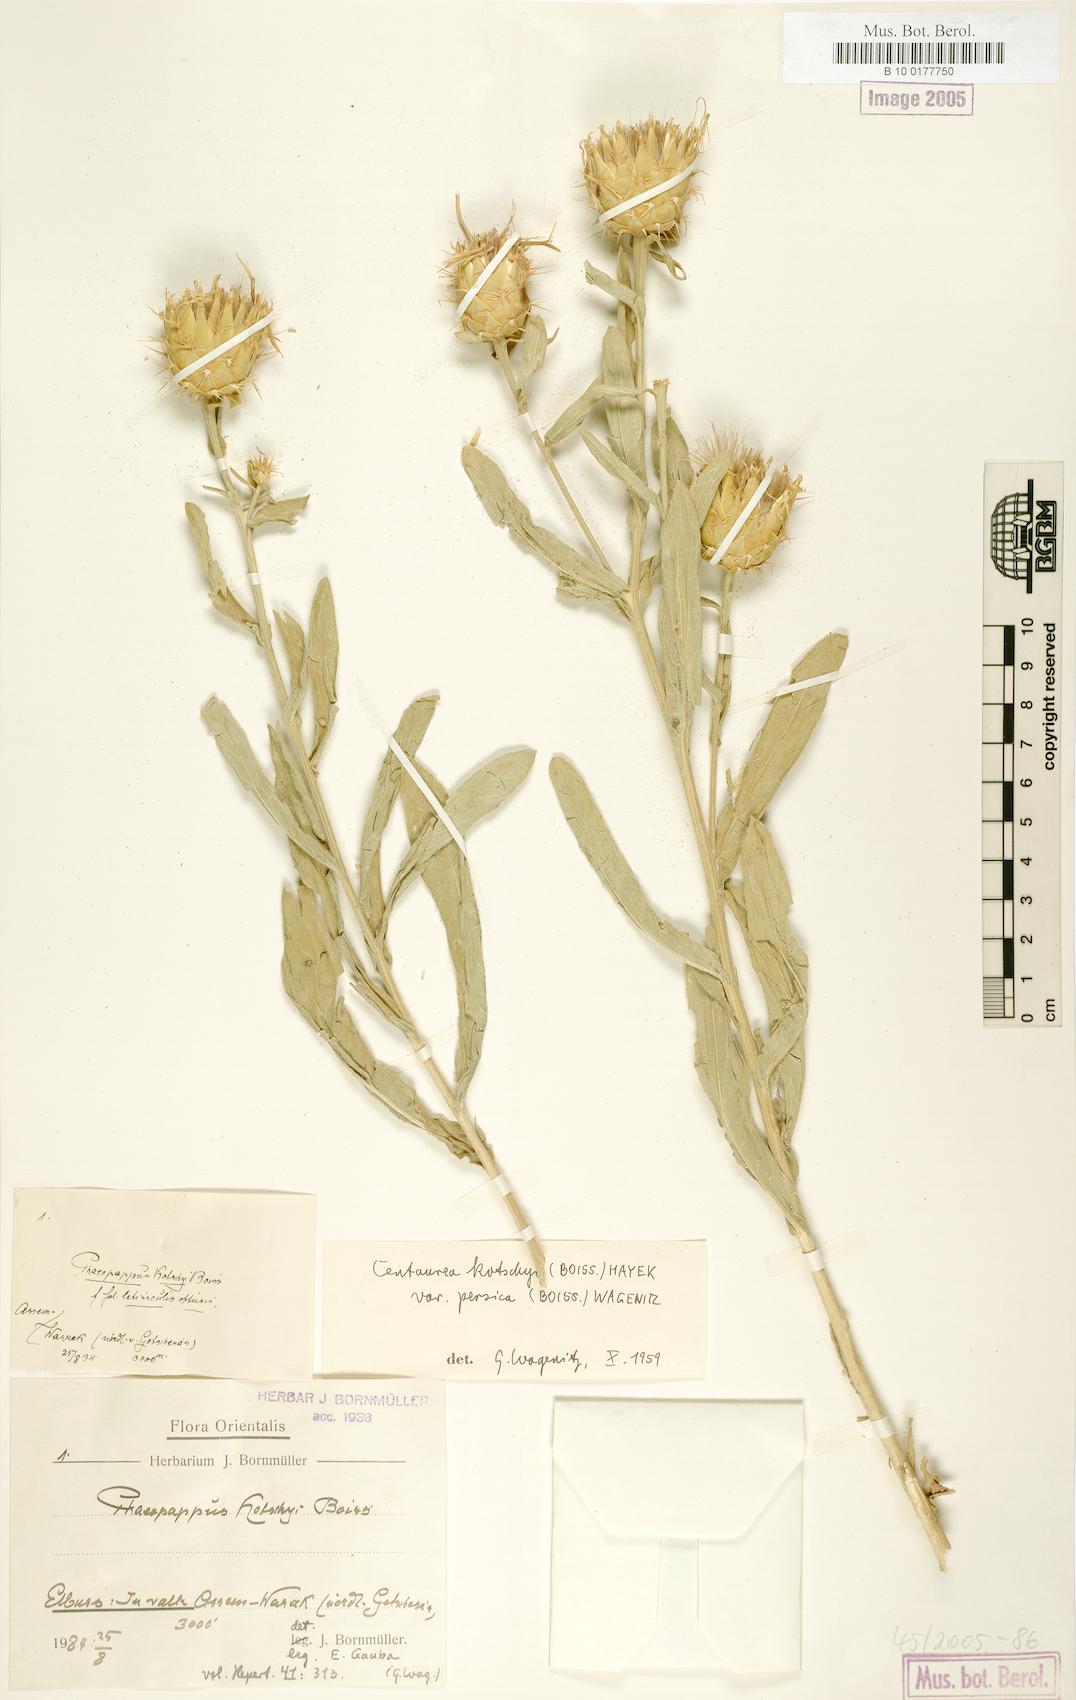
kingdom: Plantae
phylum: Tracheophyta
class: Magnoliopsida
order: Asterales
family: Asteraceae
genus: Centaurea
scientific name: Centaurea kotschyi
